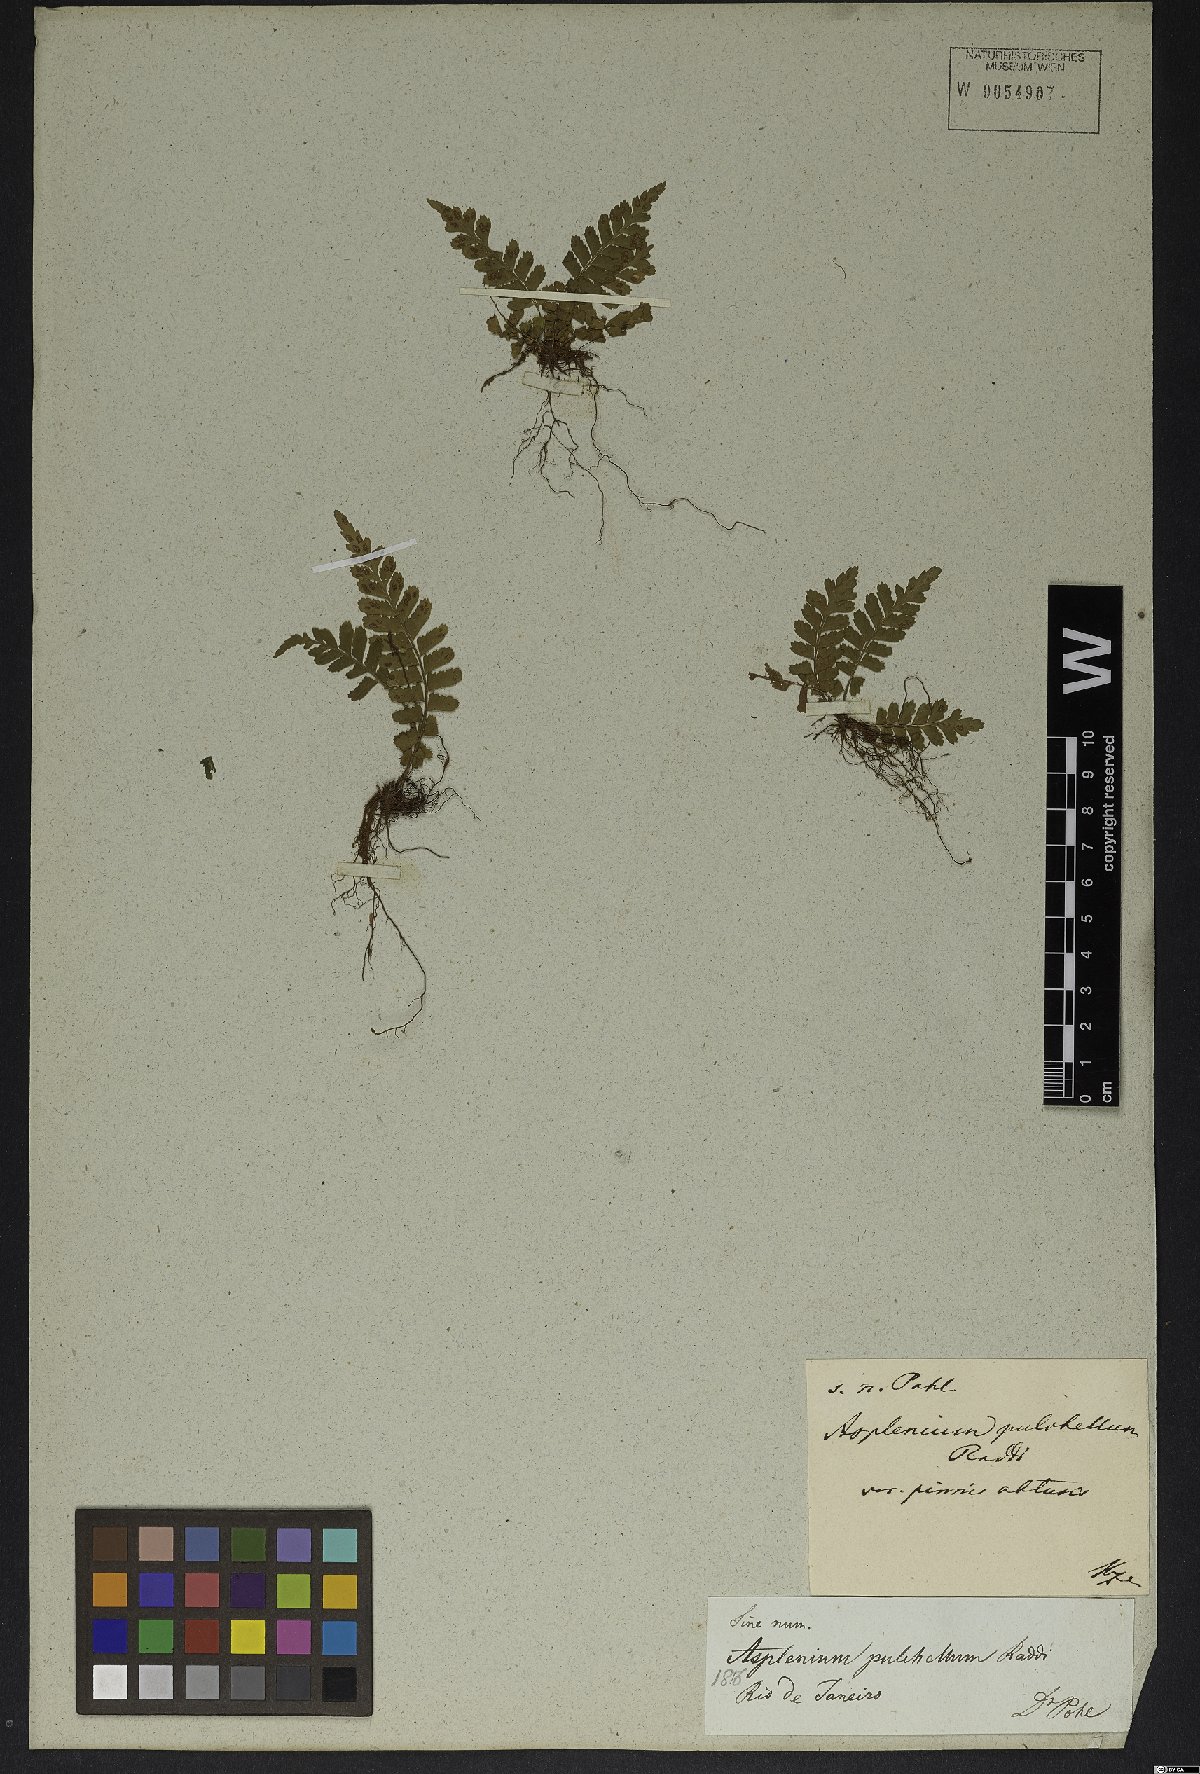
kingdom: Plantae
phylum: Tracheophyta
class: Polypodiopsida
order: Polypodiales
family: Aspleniaceae
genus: Asplenium
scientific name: Asplenium pulchellum
